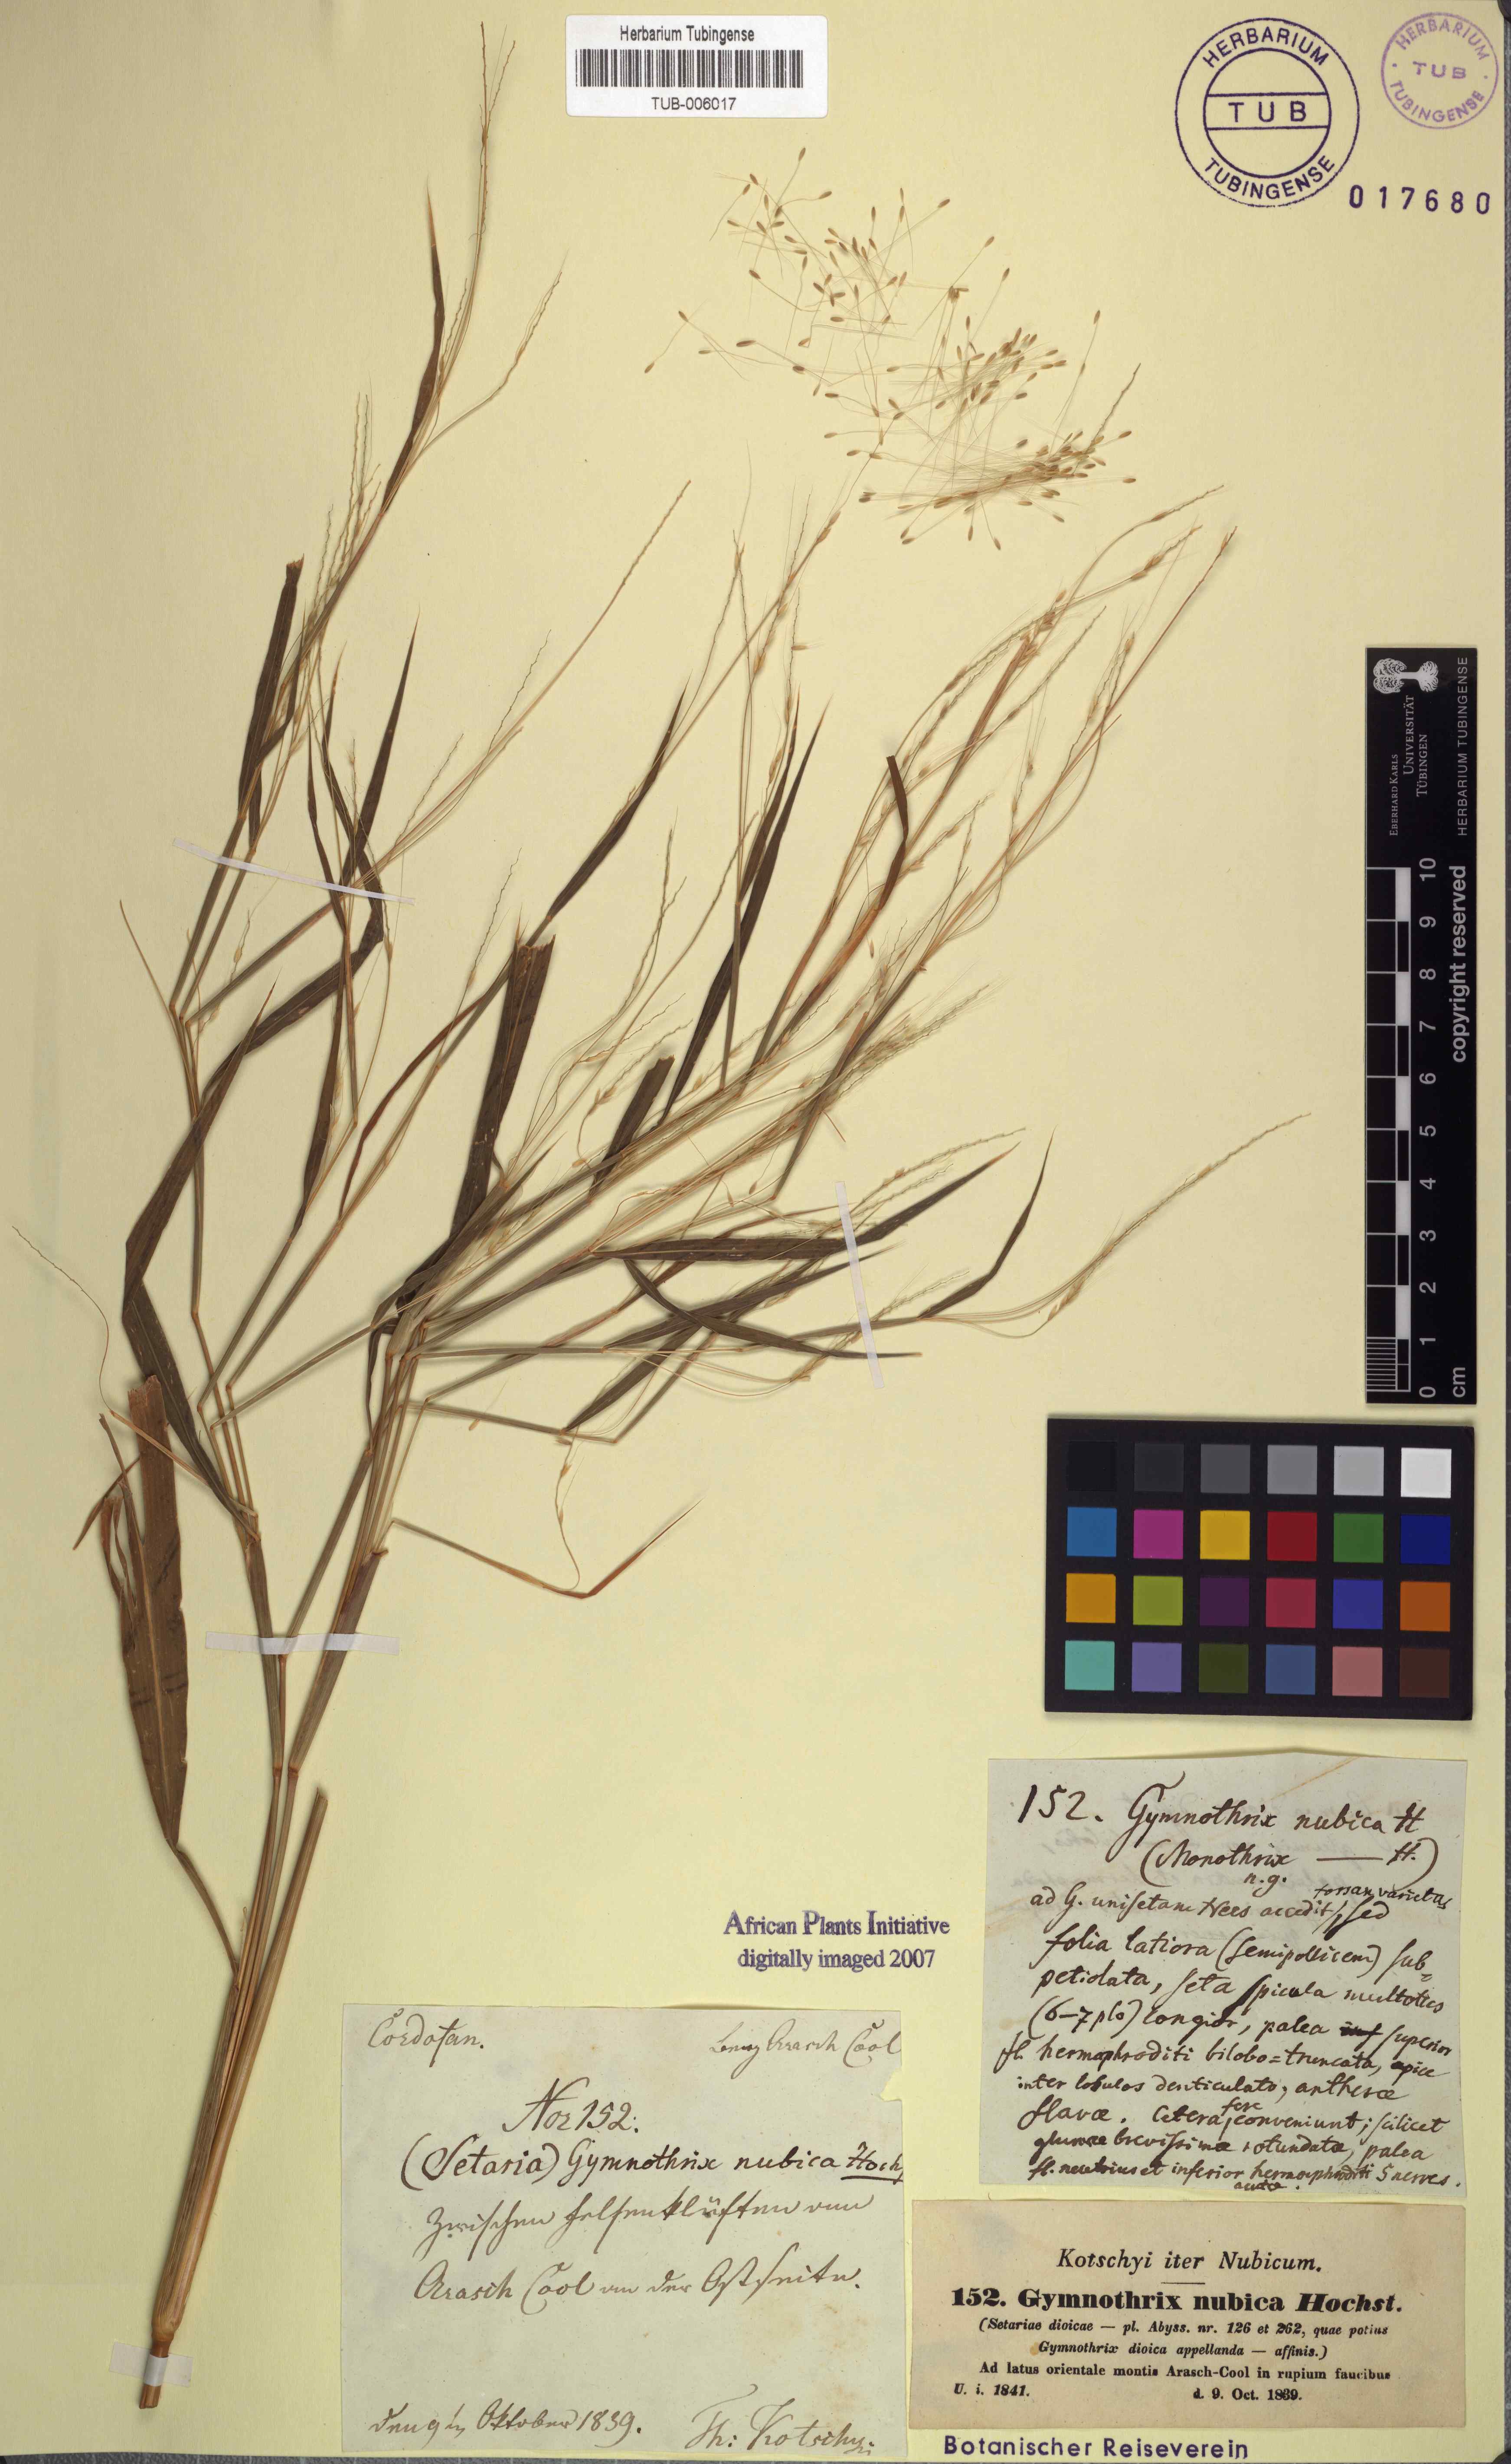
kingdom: Plantae
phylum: Tracheophyta
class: Liliopsida
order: Poales
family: Poaceae
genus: Cenchrus
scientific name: Cenchrus nubicus
